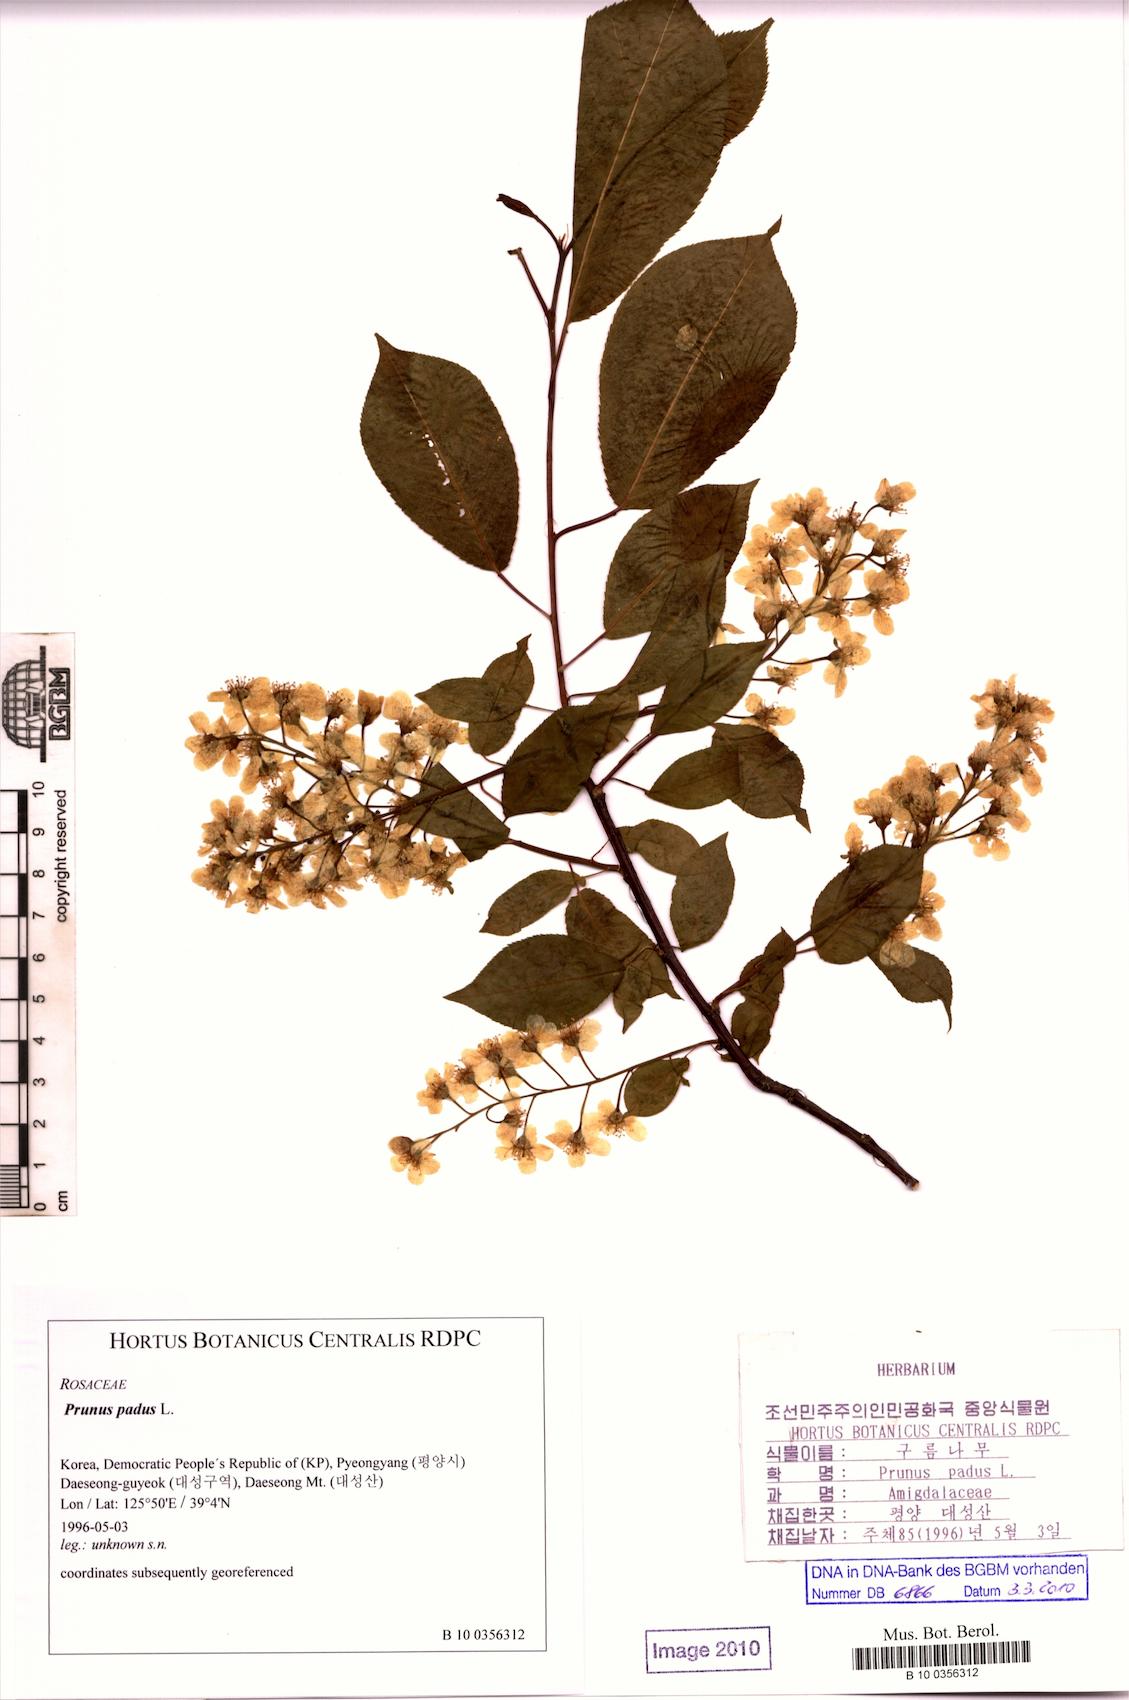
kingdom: Plantae
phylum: Tracheophyta
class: Magnoliopsida
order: Rosales
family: Rosaceae
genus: Prunus
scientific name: Prunus padus
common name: Bird cherry
